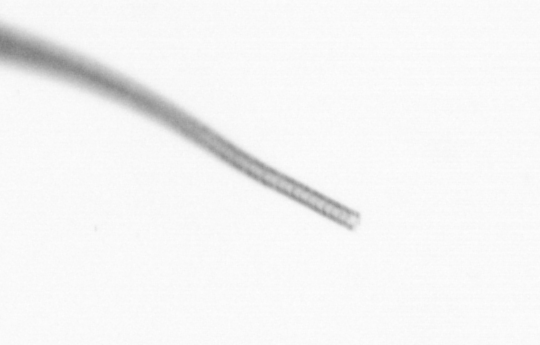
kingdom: Chromista
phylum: Ochrophyta
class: Bacillariophyceae
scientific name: Bacillariophyceae
